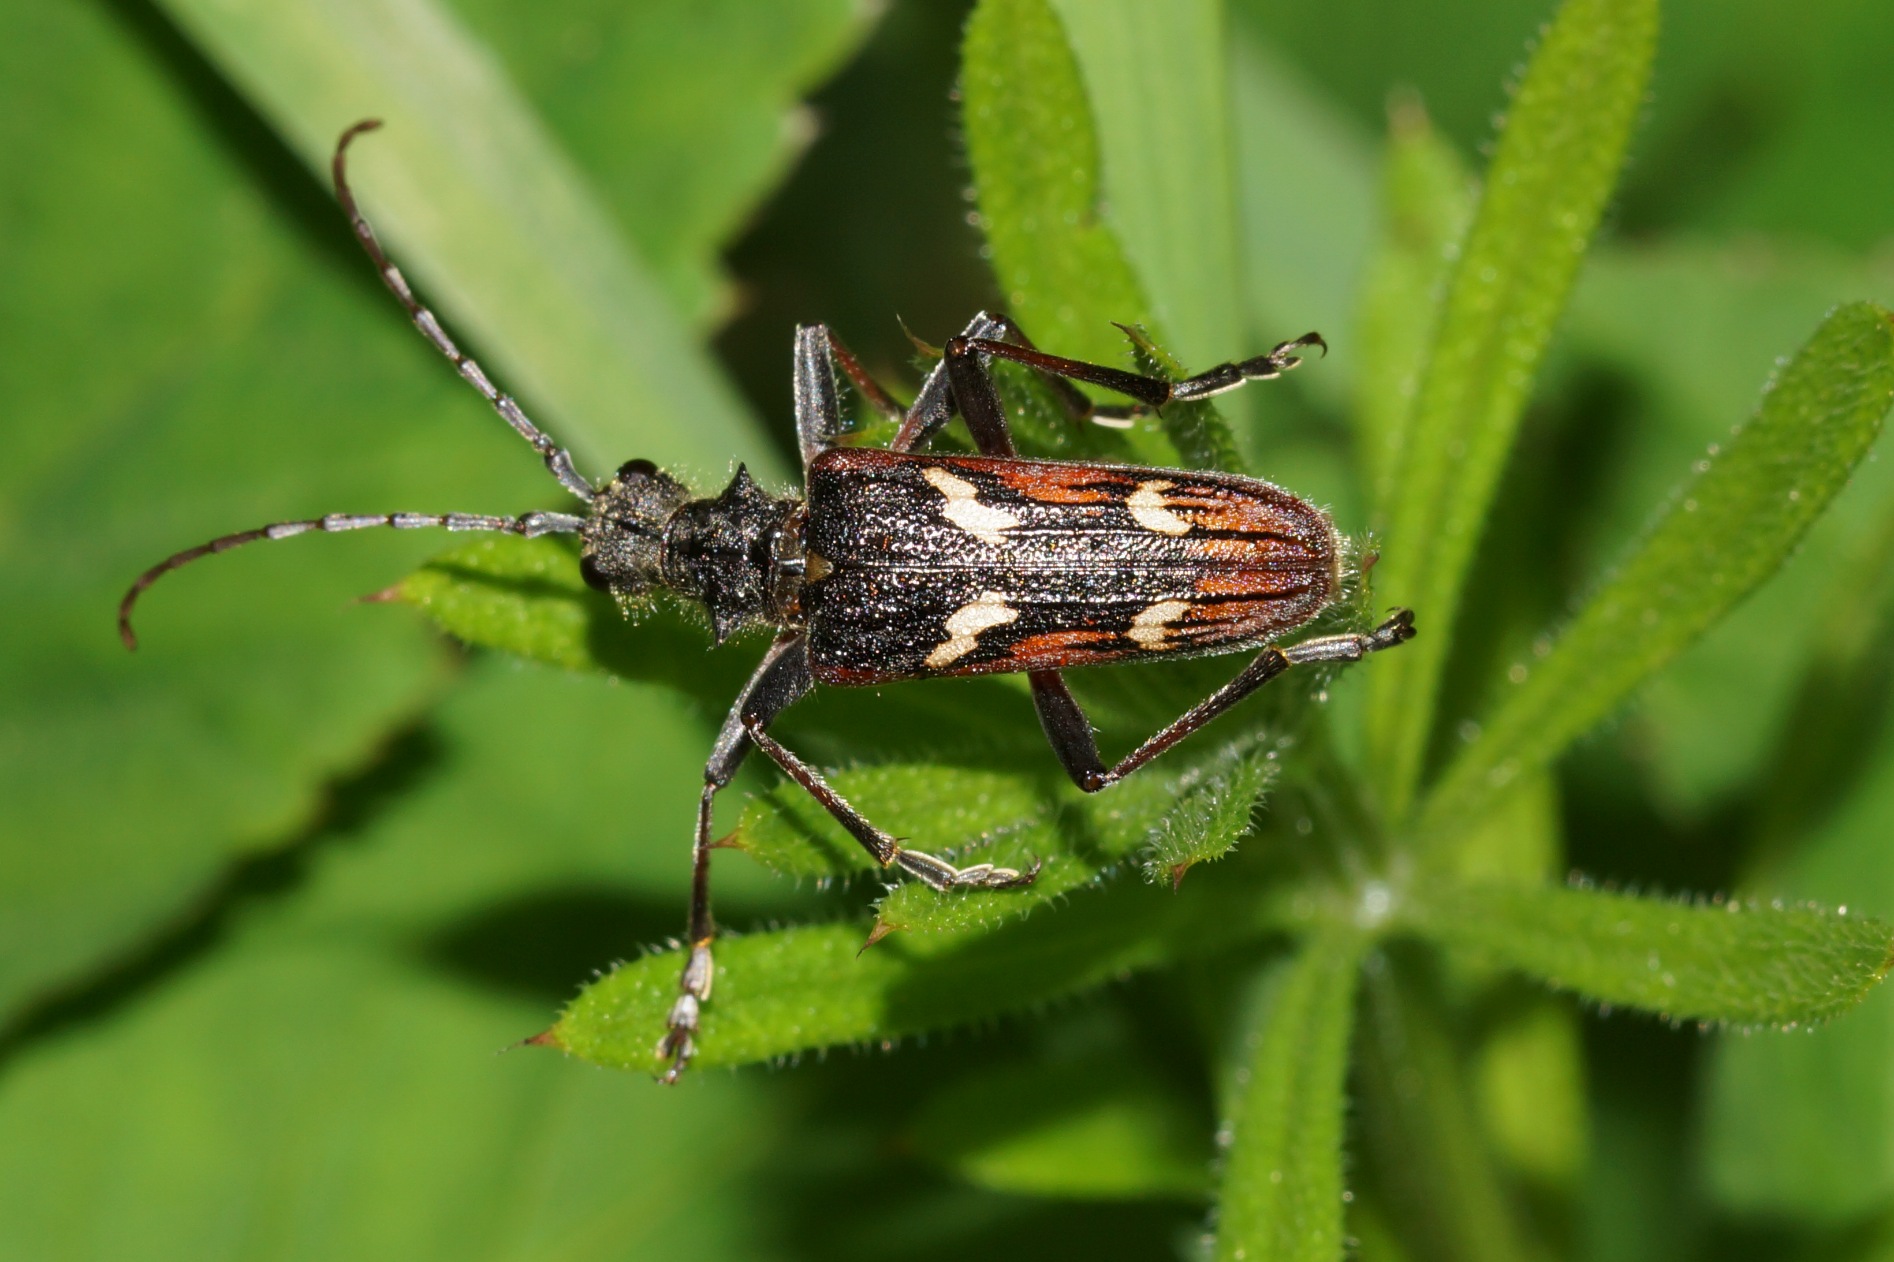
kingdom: Animalia
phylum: Arthropoda
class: Insecta
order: Coleoptera
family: Cerambycidae
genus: Rhagium
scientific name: Rhagium bifasciatum
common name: Båndet tandbuk
